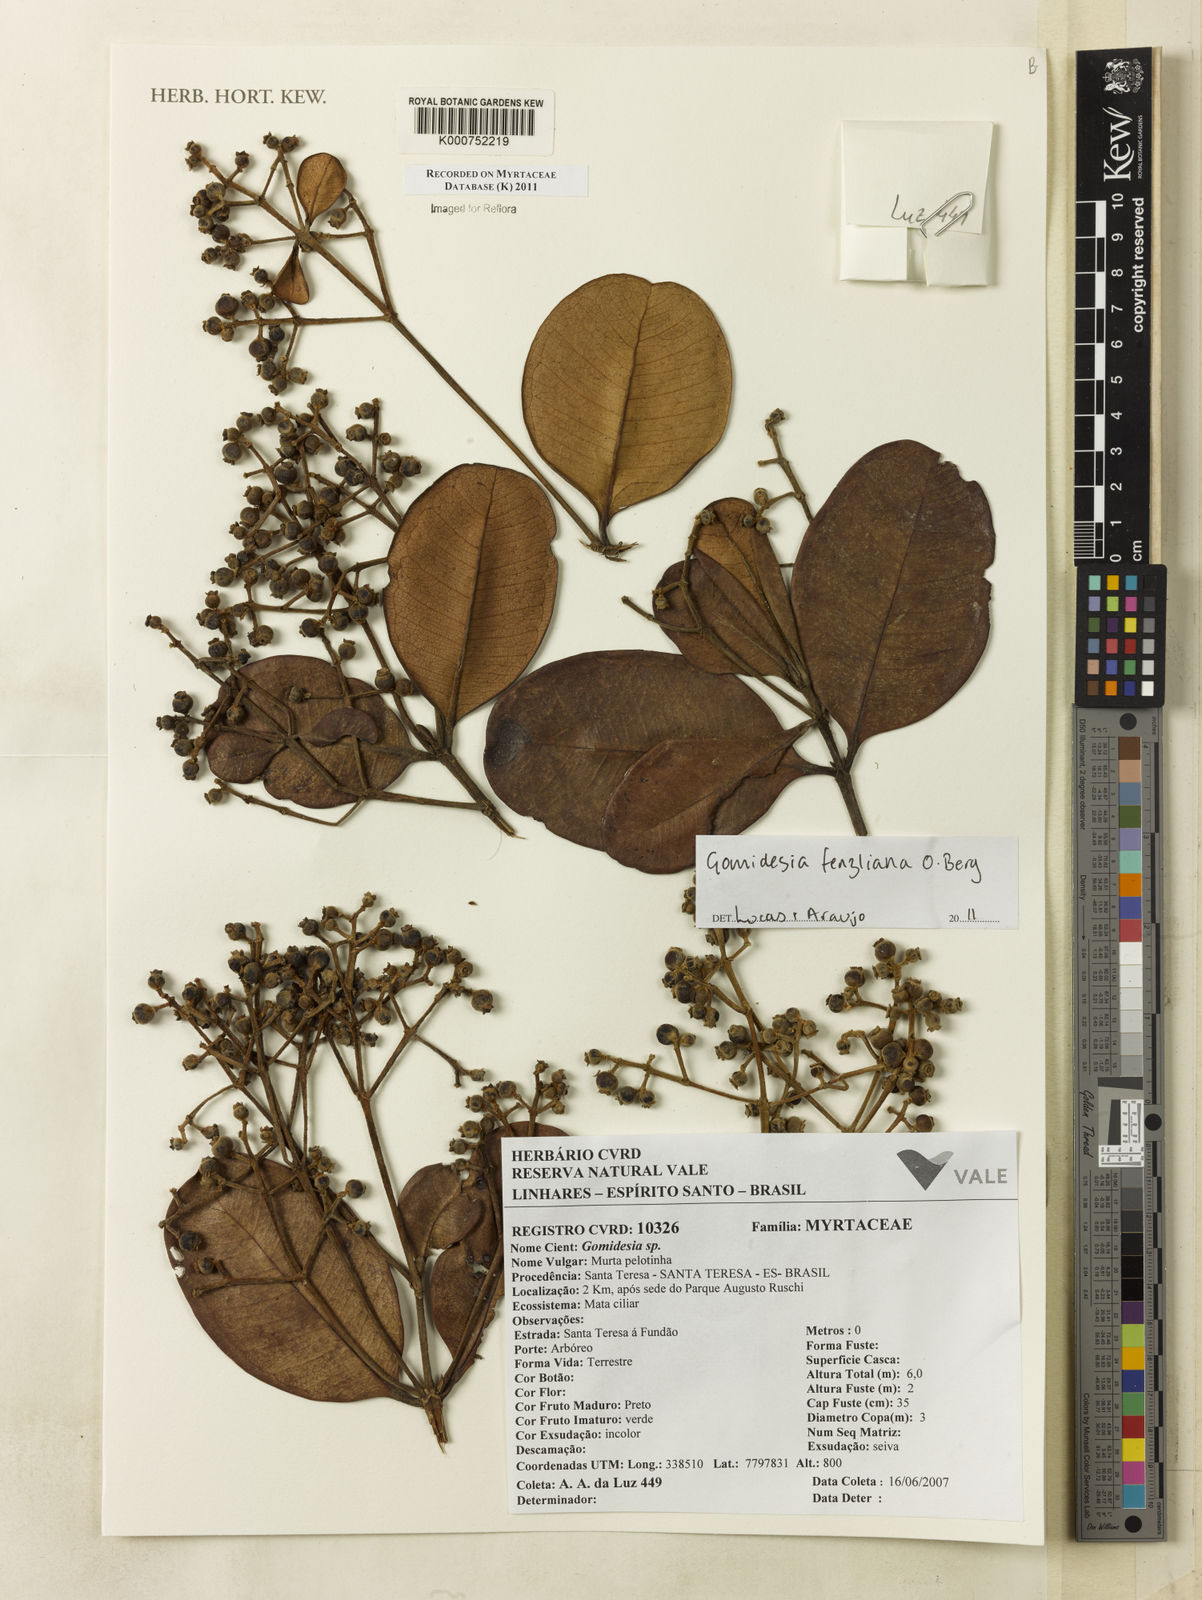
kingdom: Plantae
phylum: Tracheophyta
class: Magnoliopsida
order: Myrtales
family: Myrtaceae
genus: Myrcia
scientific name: Myrcia ilheosensis
